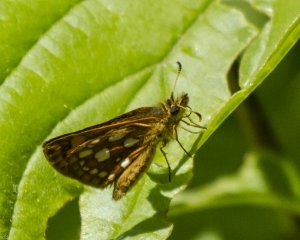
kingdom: Animalia
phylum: Arthropoda
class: Insecta
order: Lepidoptera
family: Hesperiidae
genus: Carterocephalus
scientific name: Carterocephalus palaemon
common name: Chequered Skipper
